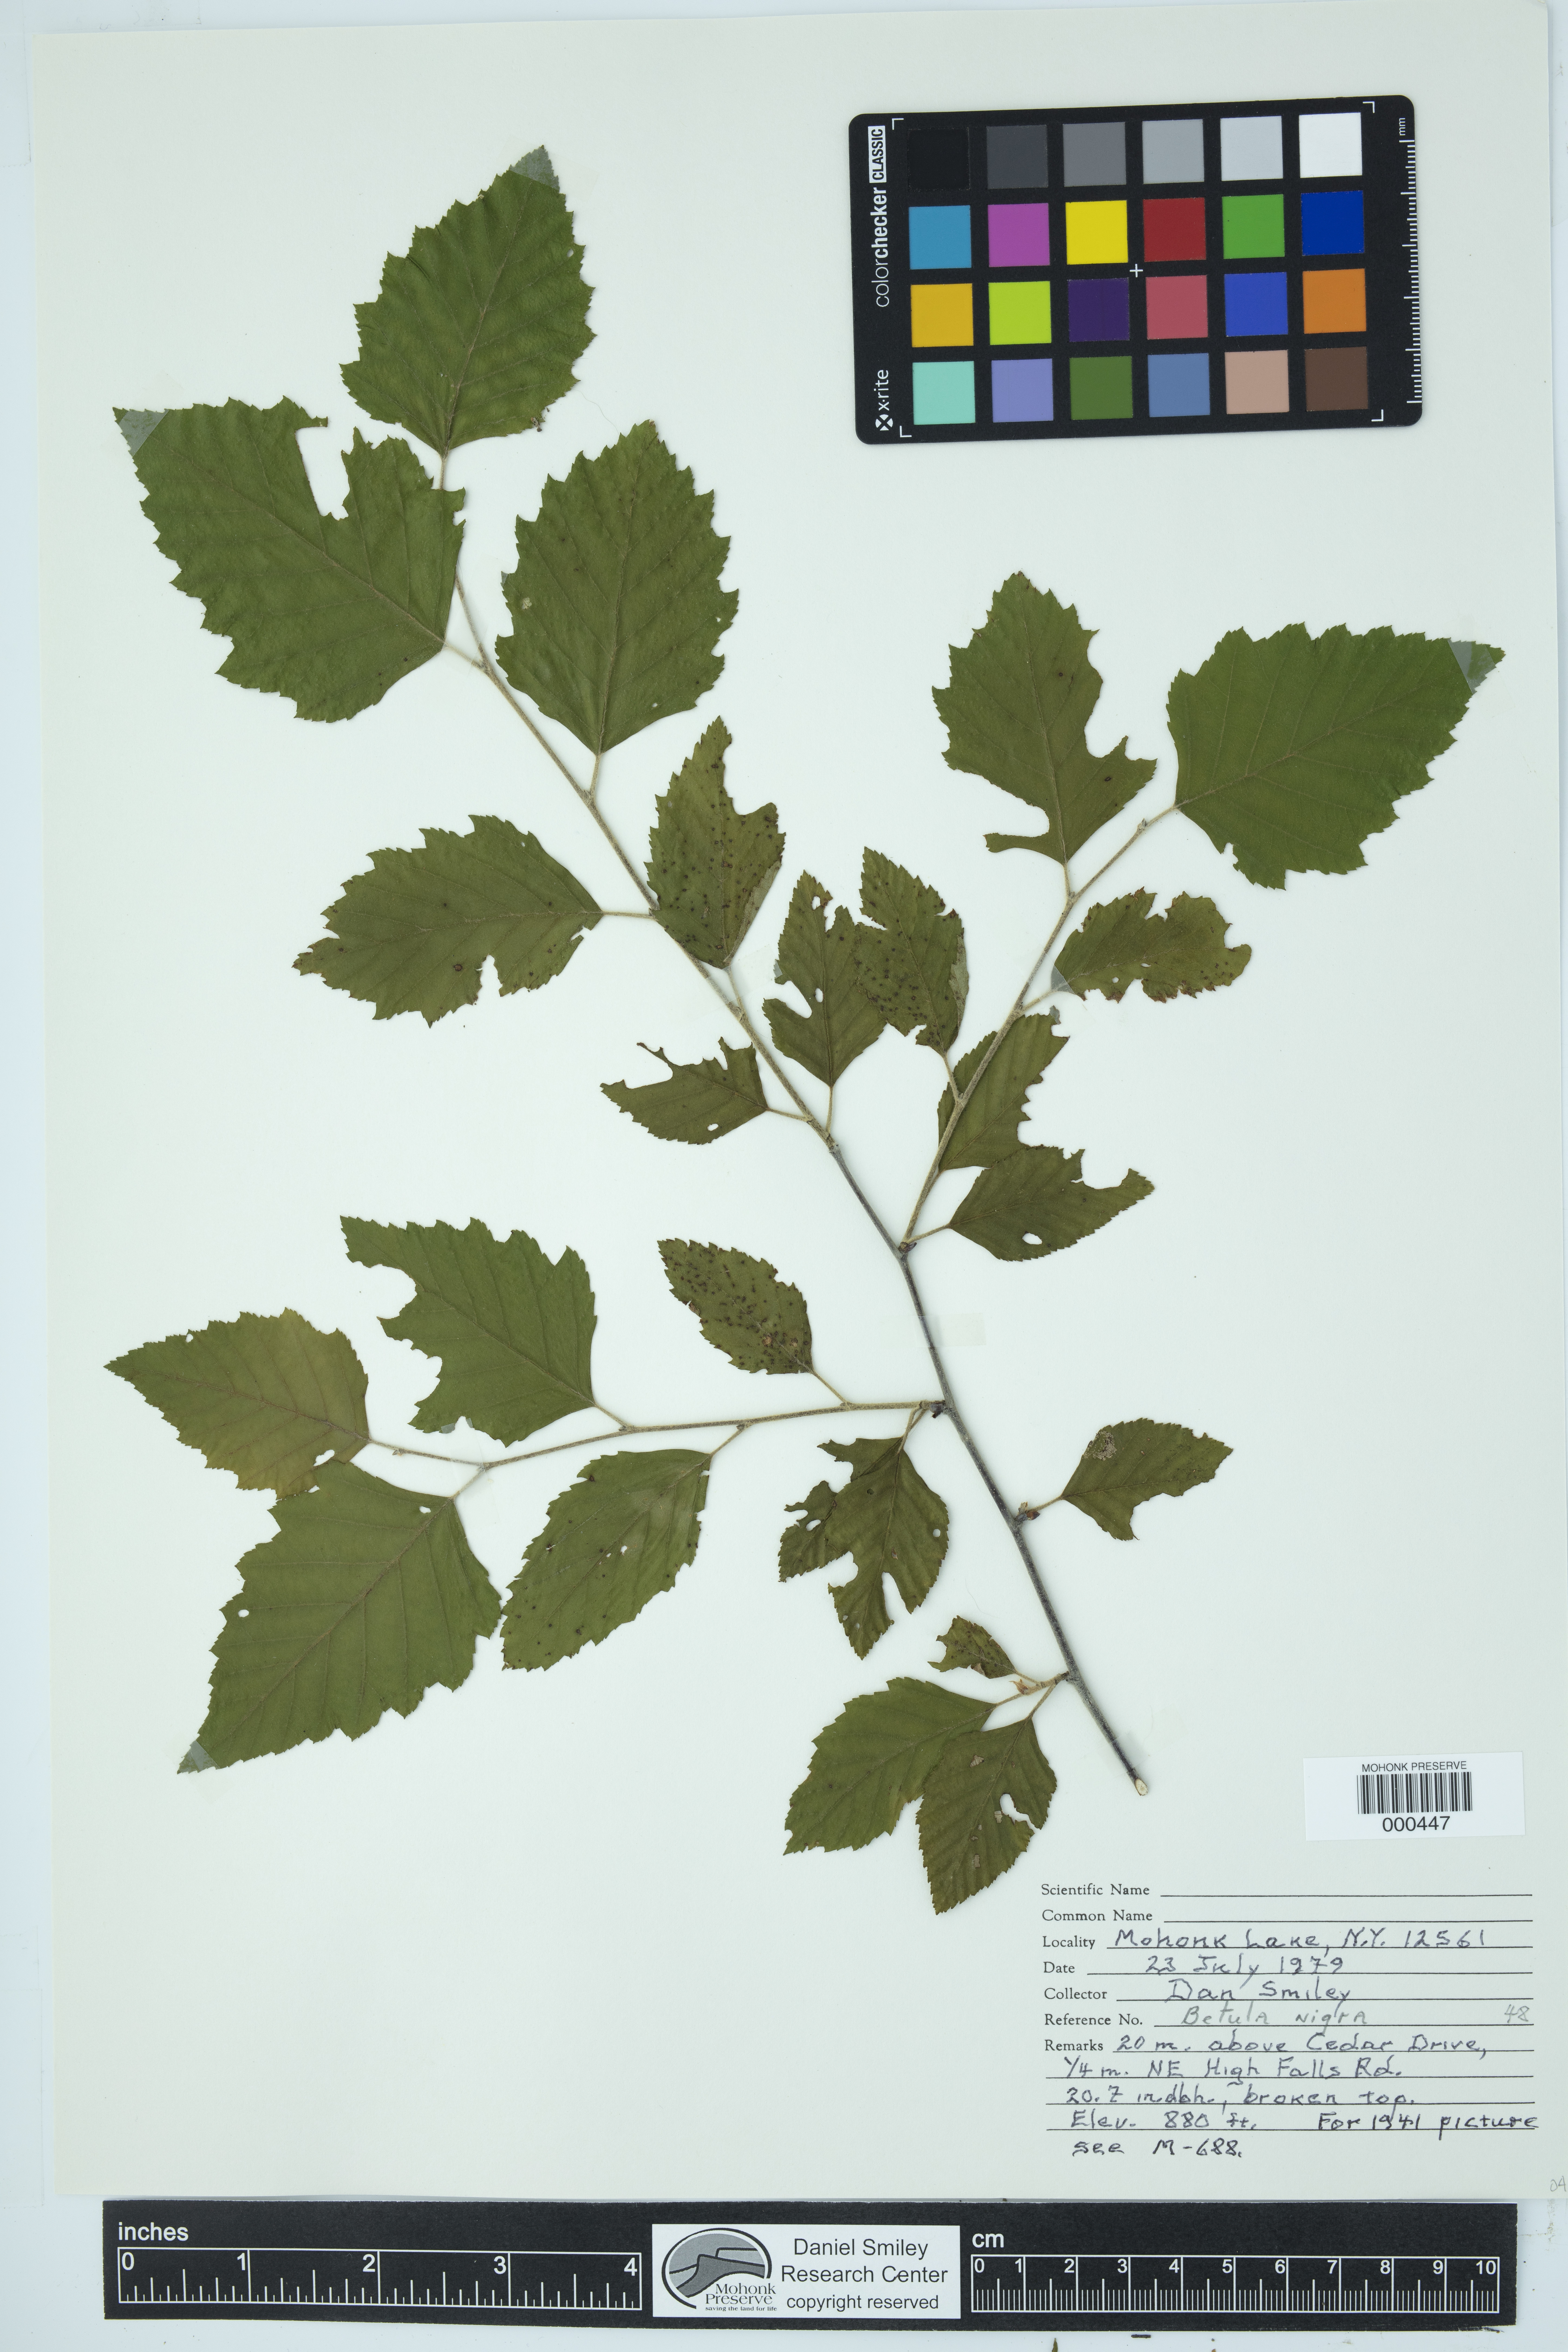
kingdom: Plantae
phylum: Tracheophyta
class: Magnoliopsida
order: Fagales
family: Betulaceae
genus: Betula
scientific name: Betula nigra
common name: Black birch
